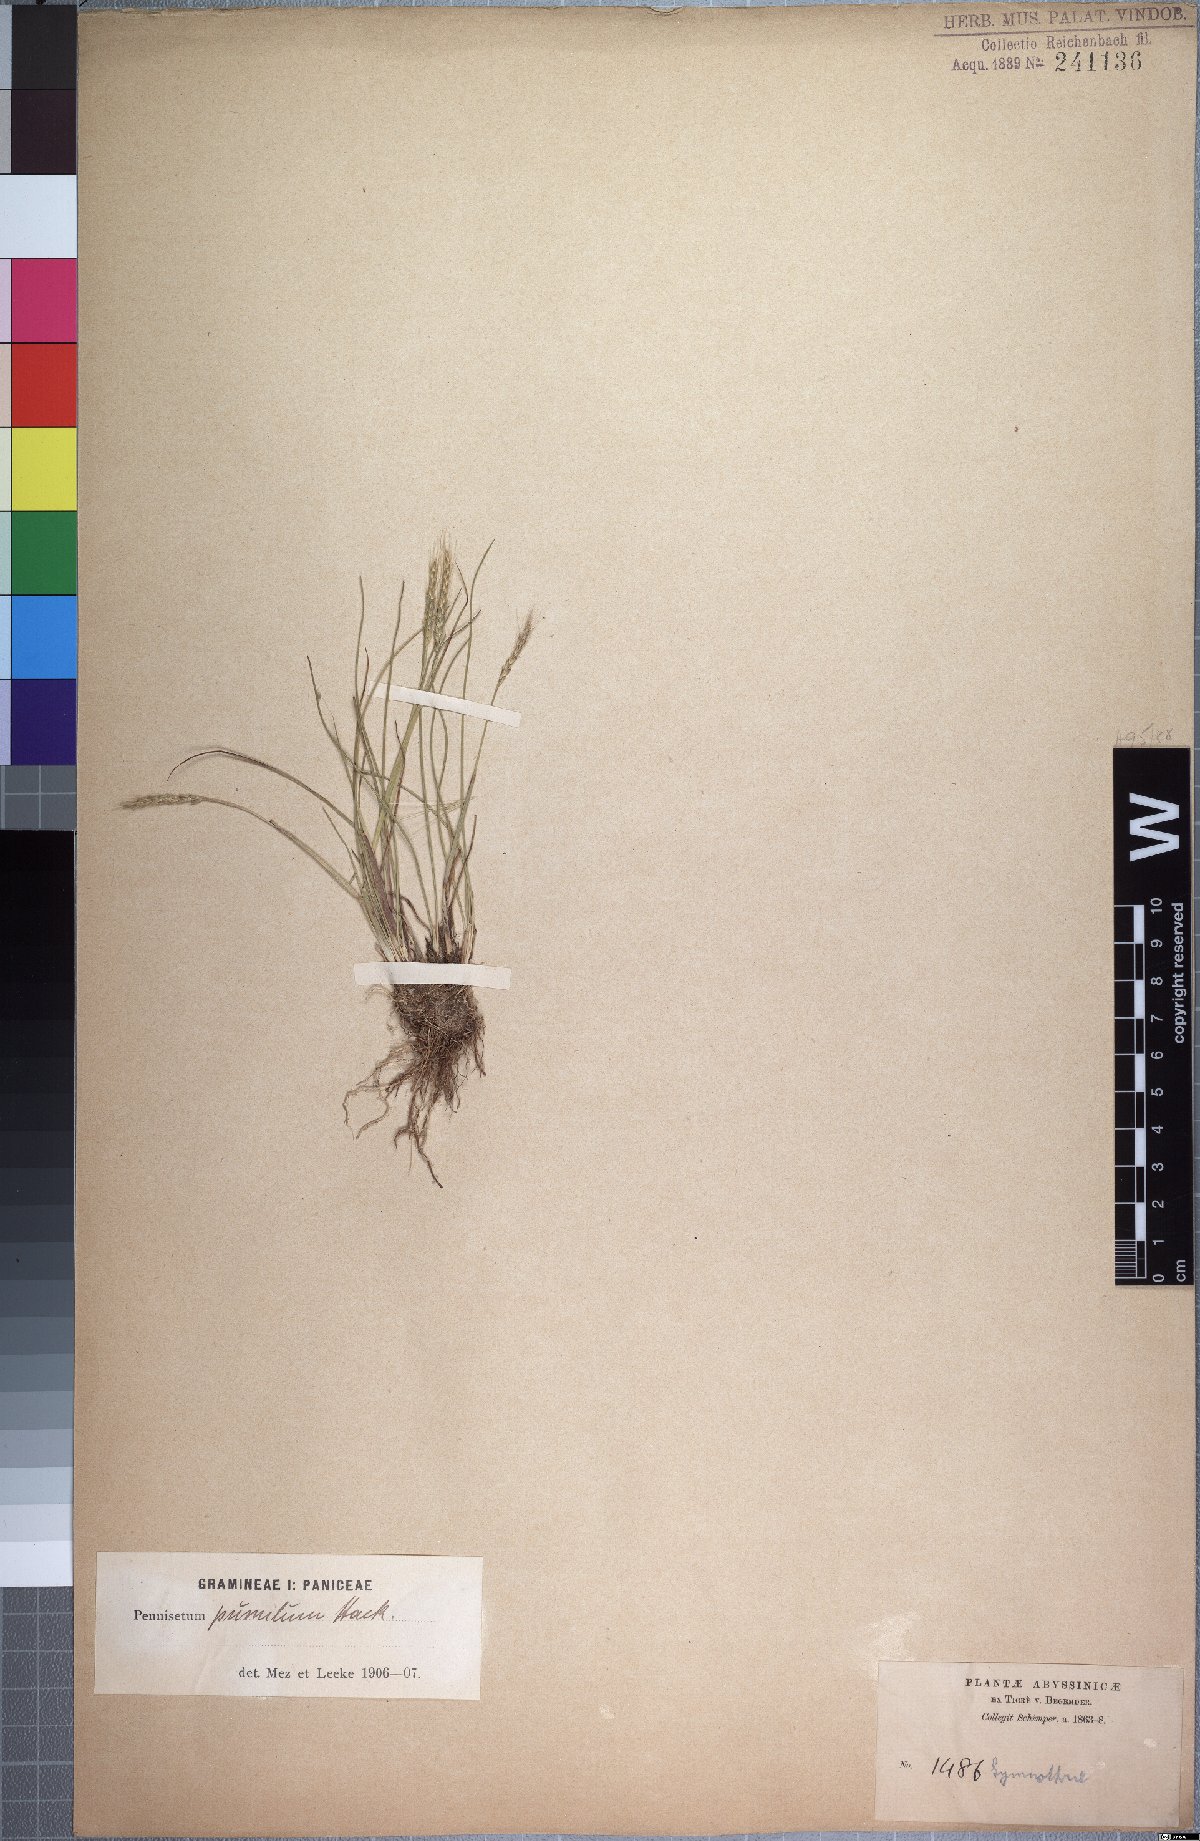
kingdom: Plantae
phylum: Tracheophyta
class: Liliopsida
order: Poales
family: Poaceae
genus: Cenchrus
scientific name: Cenchrus Pennisetum pumilum
